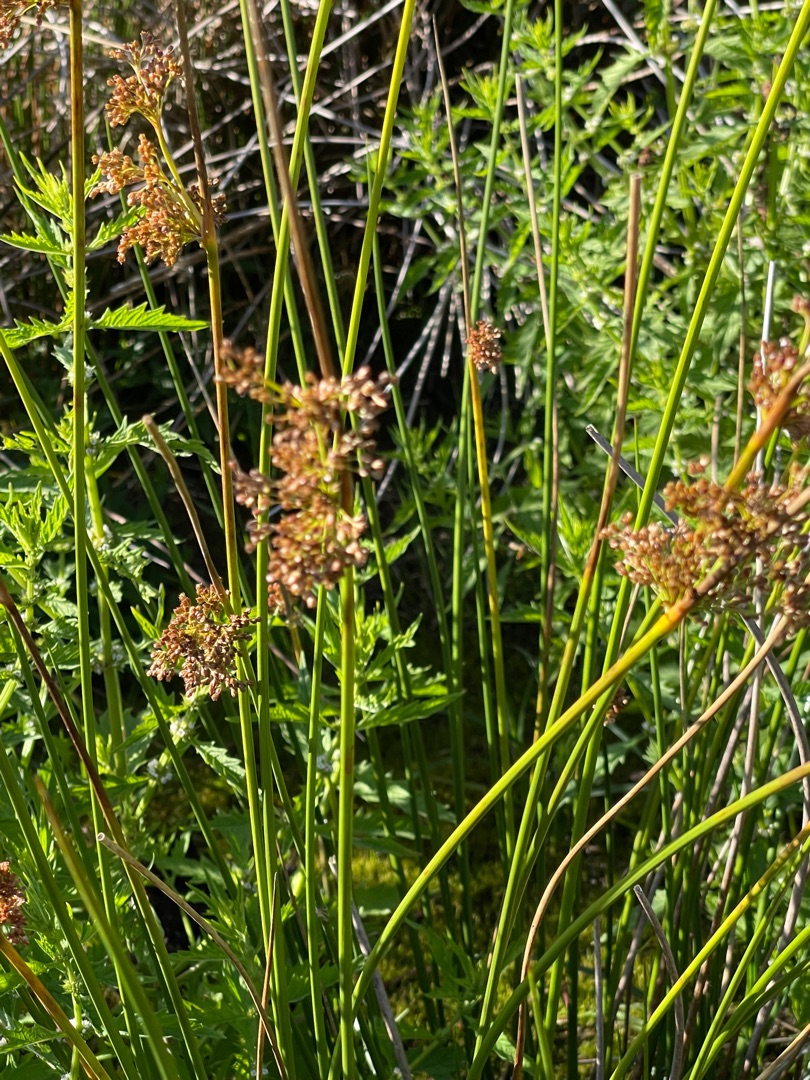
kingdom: Plantae
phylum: Tracheophyta
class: Liliopsida
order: Poales
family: Juncaceae
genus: Juncus
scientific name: Juncus effusus
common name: Lyse-siv
